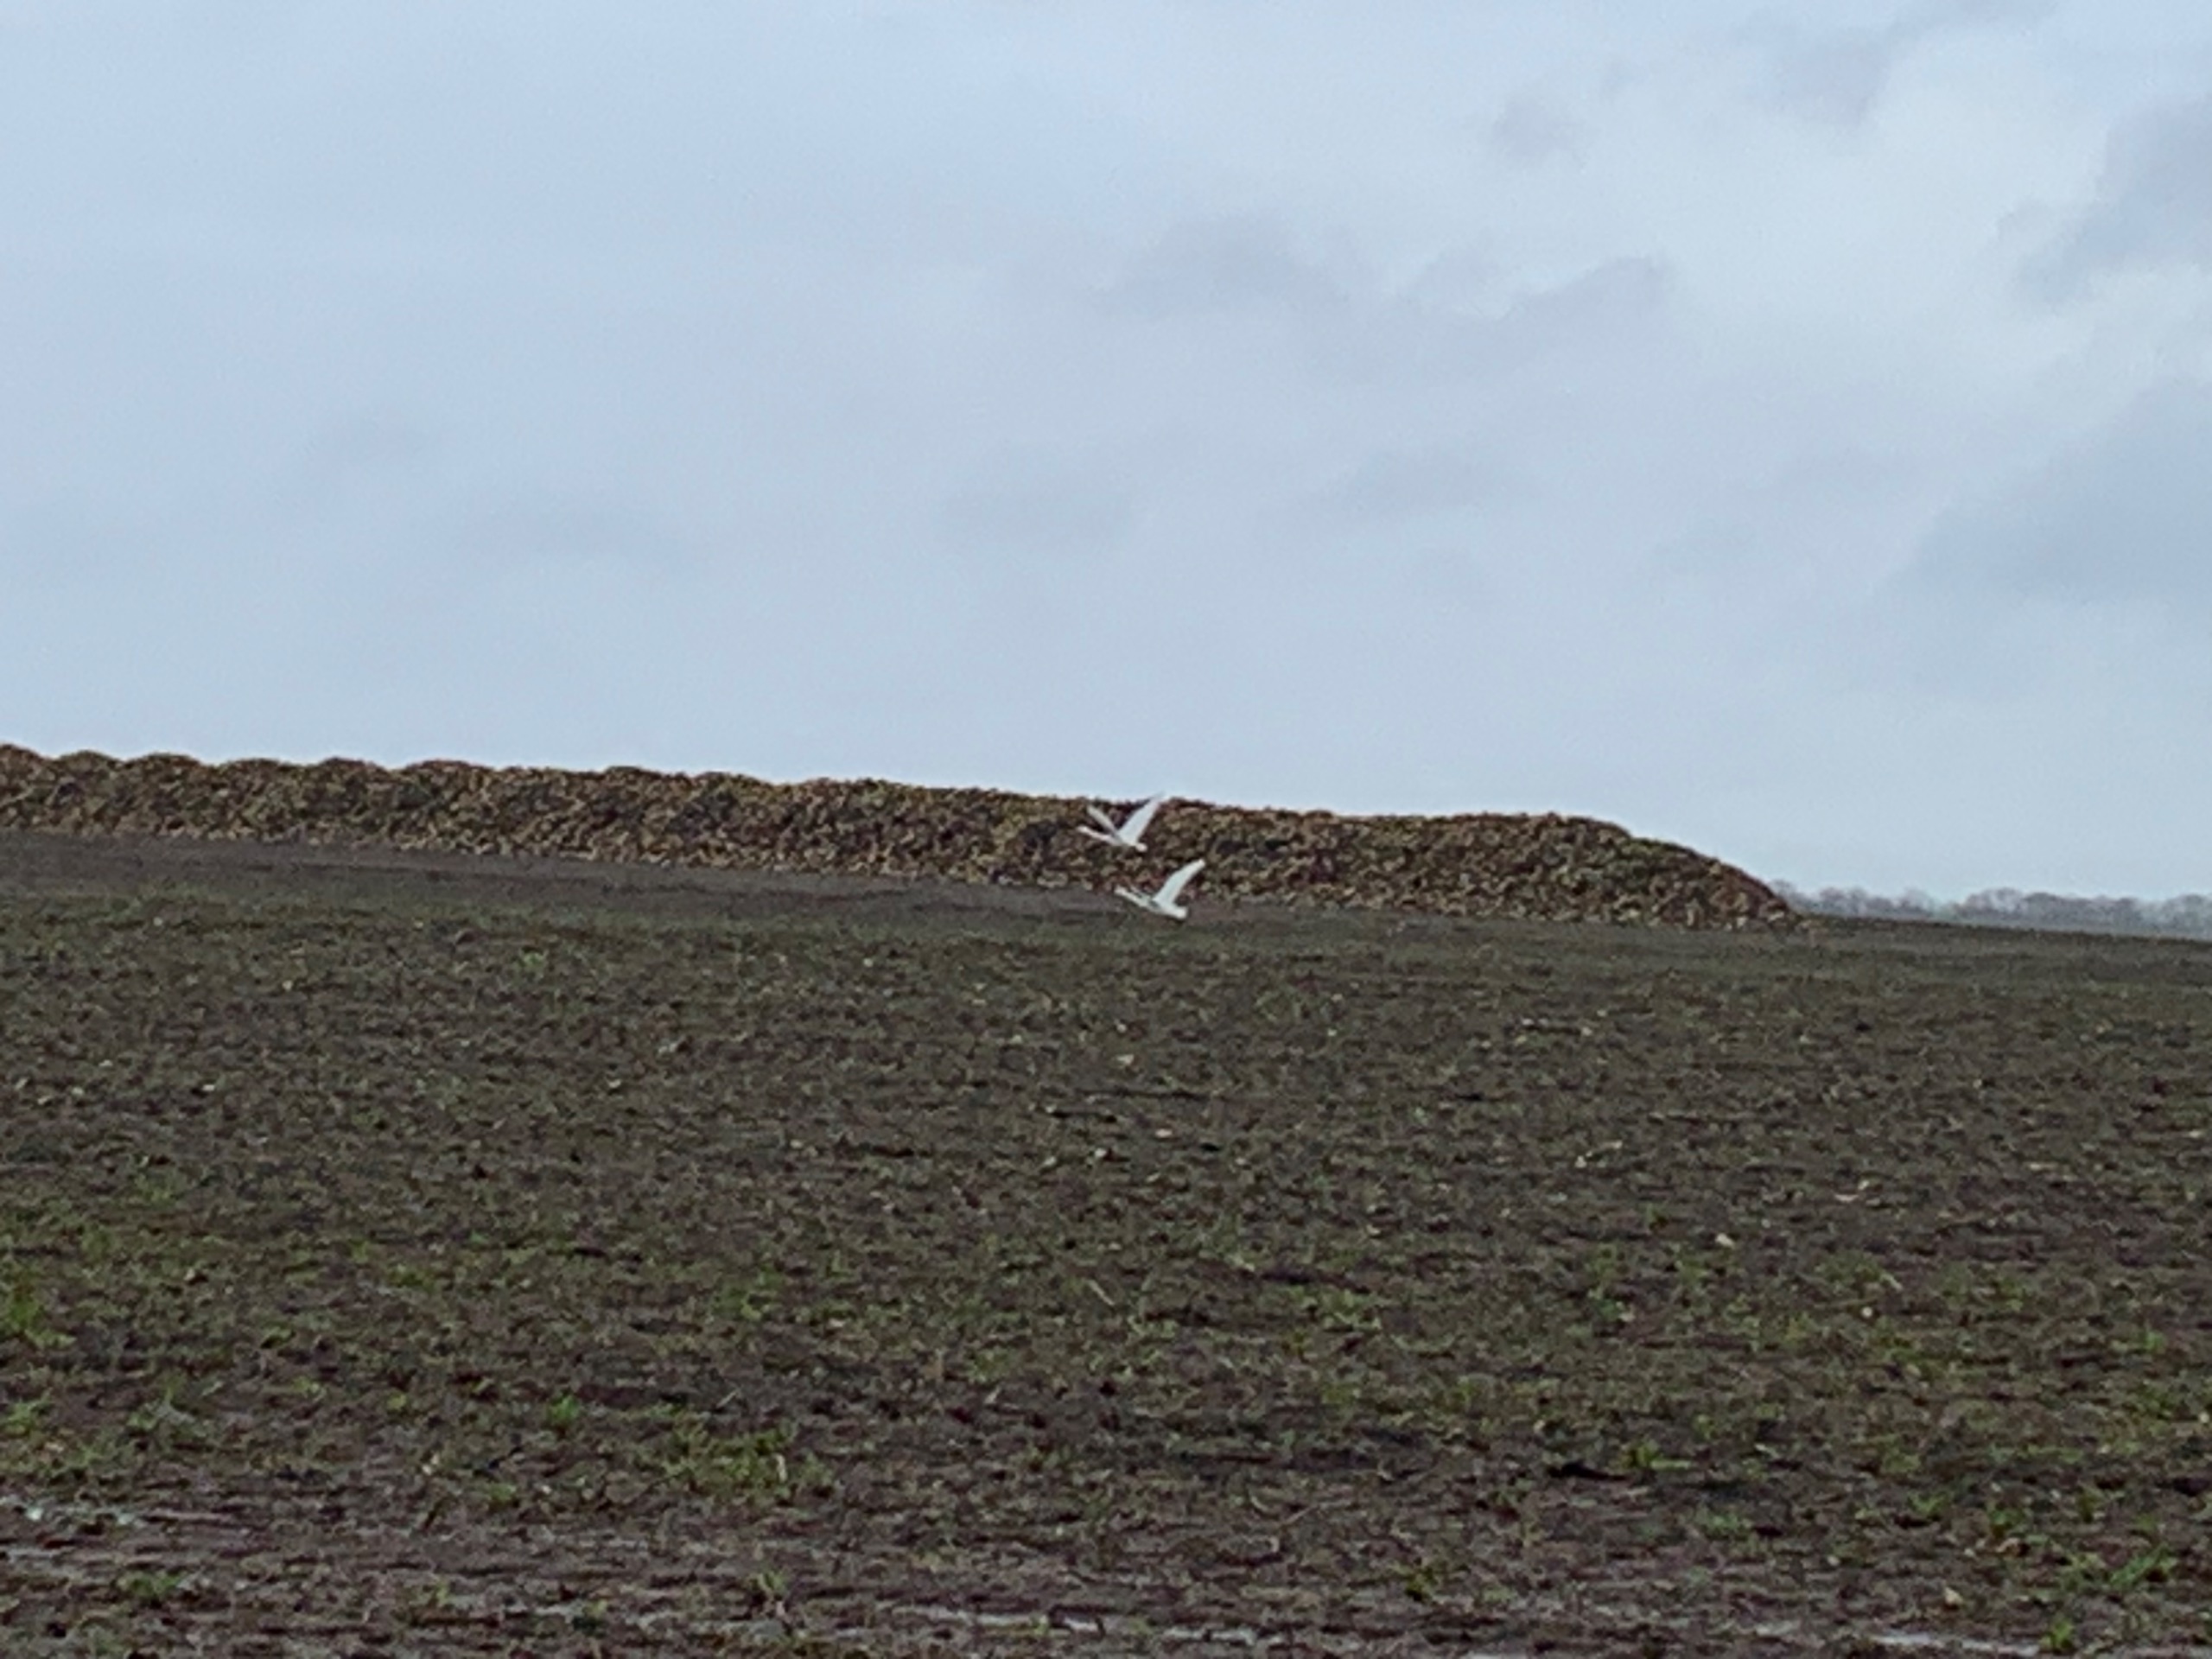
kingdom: Animalia
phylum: Chordata
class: Aves
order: Anseriformes
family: Anatidae
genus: Cygnus
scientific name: Cygnus cygnus
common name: Sangsvane
